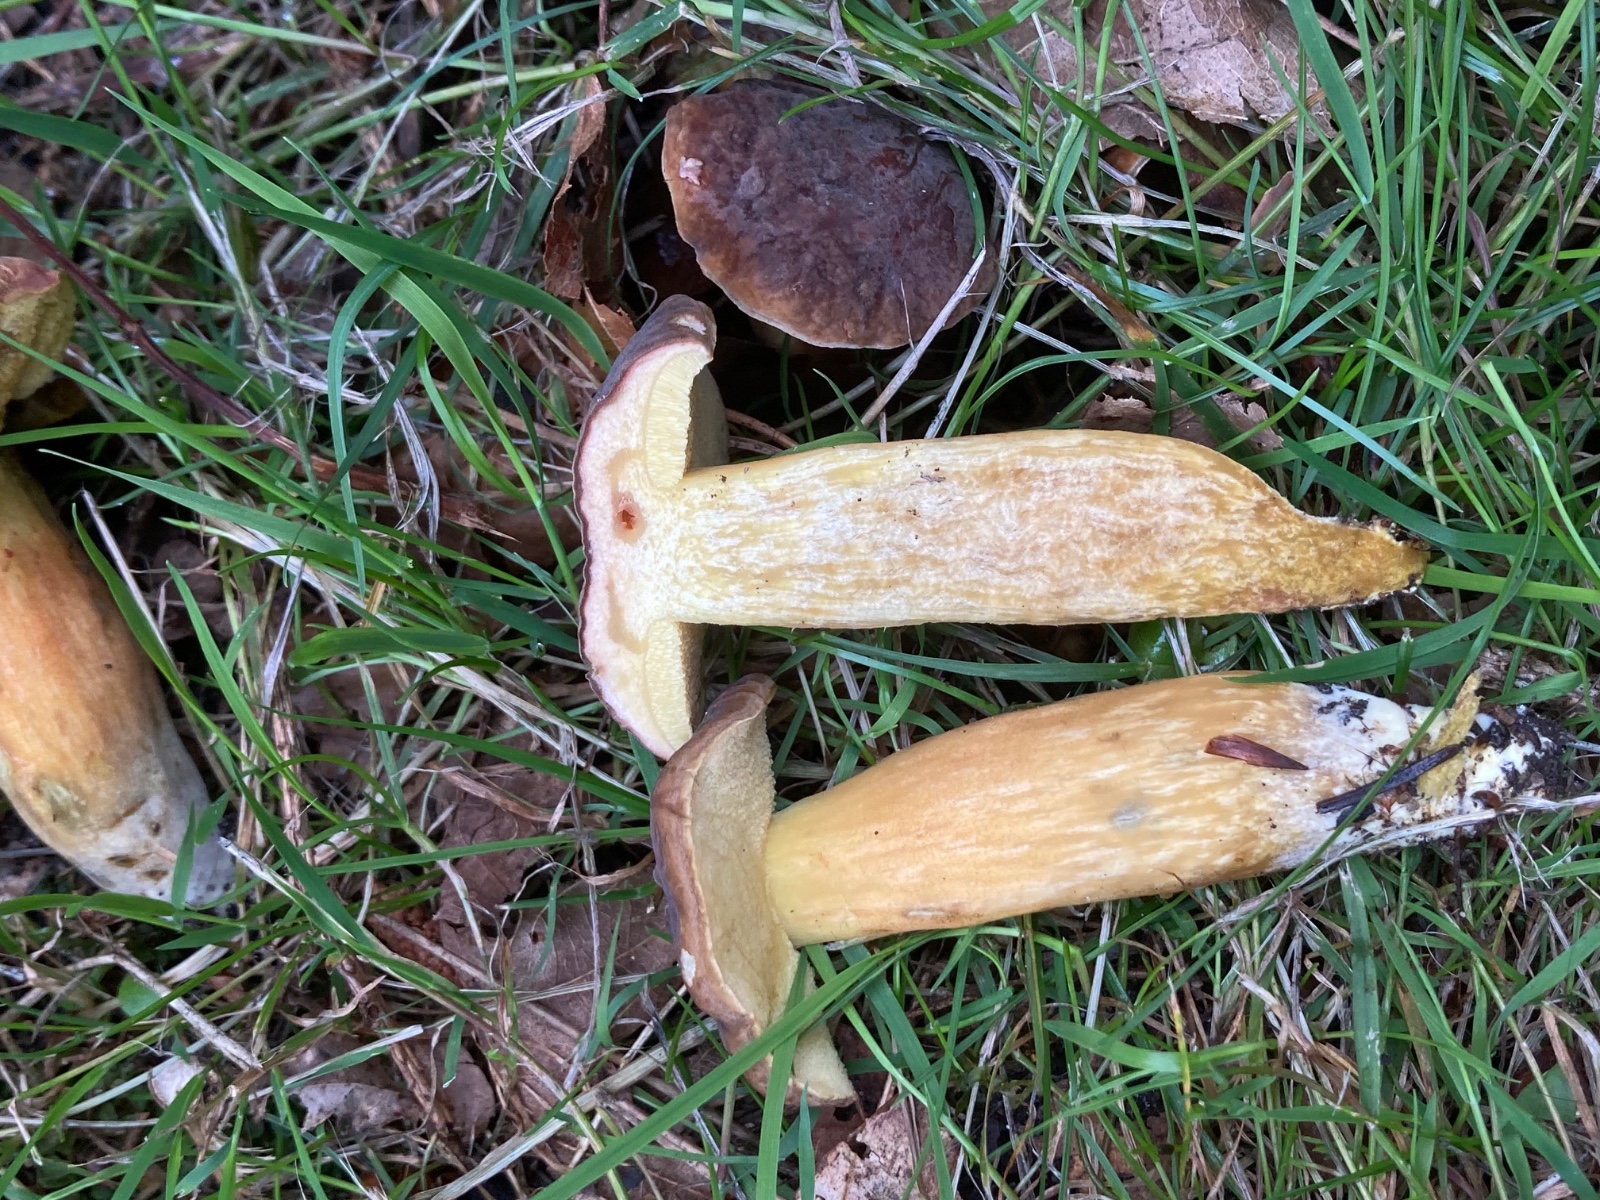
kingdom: Fungi
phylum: Basidiomycota
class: Agaricomycetes
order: Boletales
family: Boletaceae
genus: Xerocomellus
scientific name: Xerocomellus pruinatus
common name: dugget rørhat
